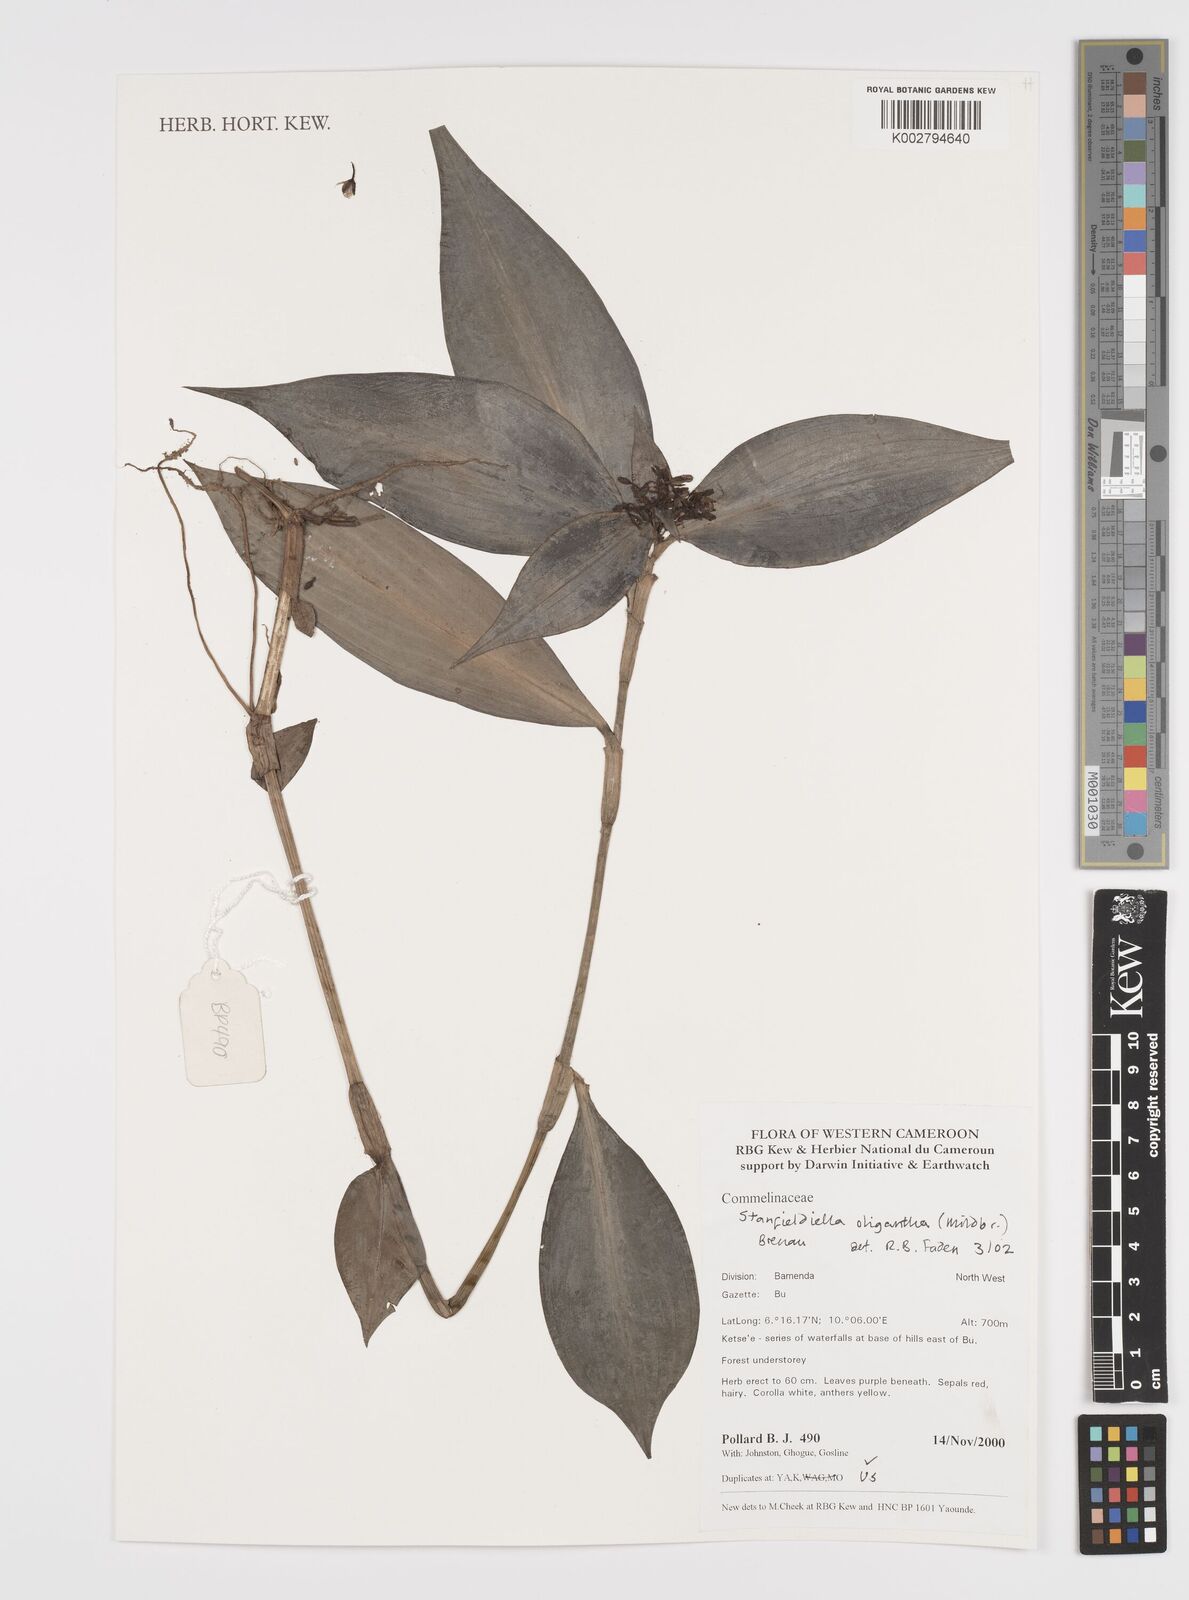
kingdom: Plantae
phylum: Tracheophyta
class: Liliopsida
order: Commelinales
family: Commelinaceae
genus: Stanfieldiella
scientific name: Stanfieldiella oligantha
